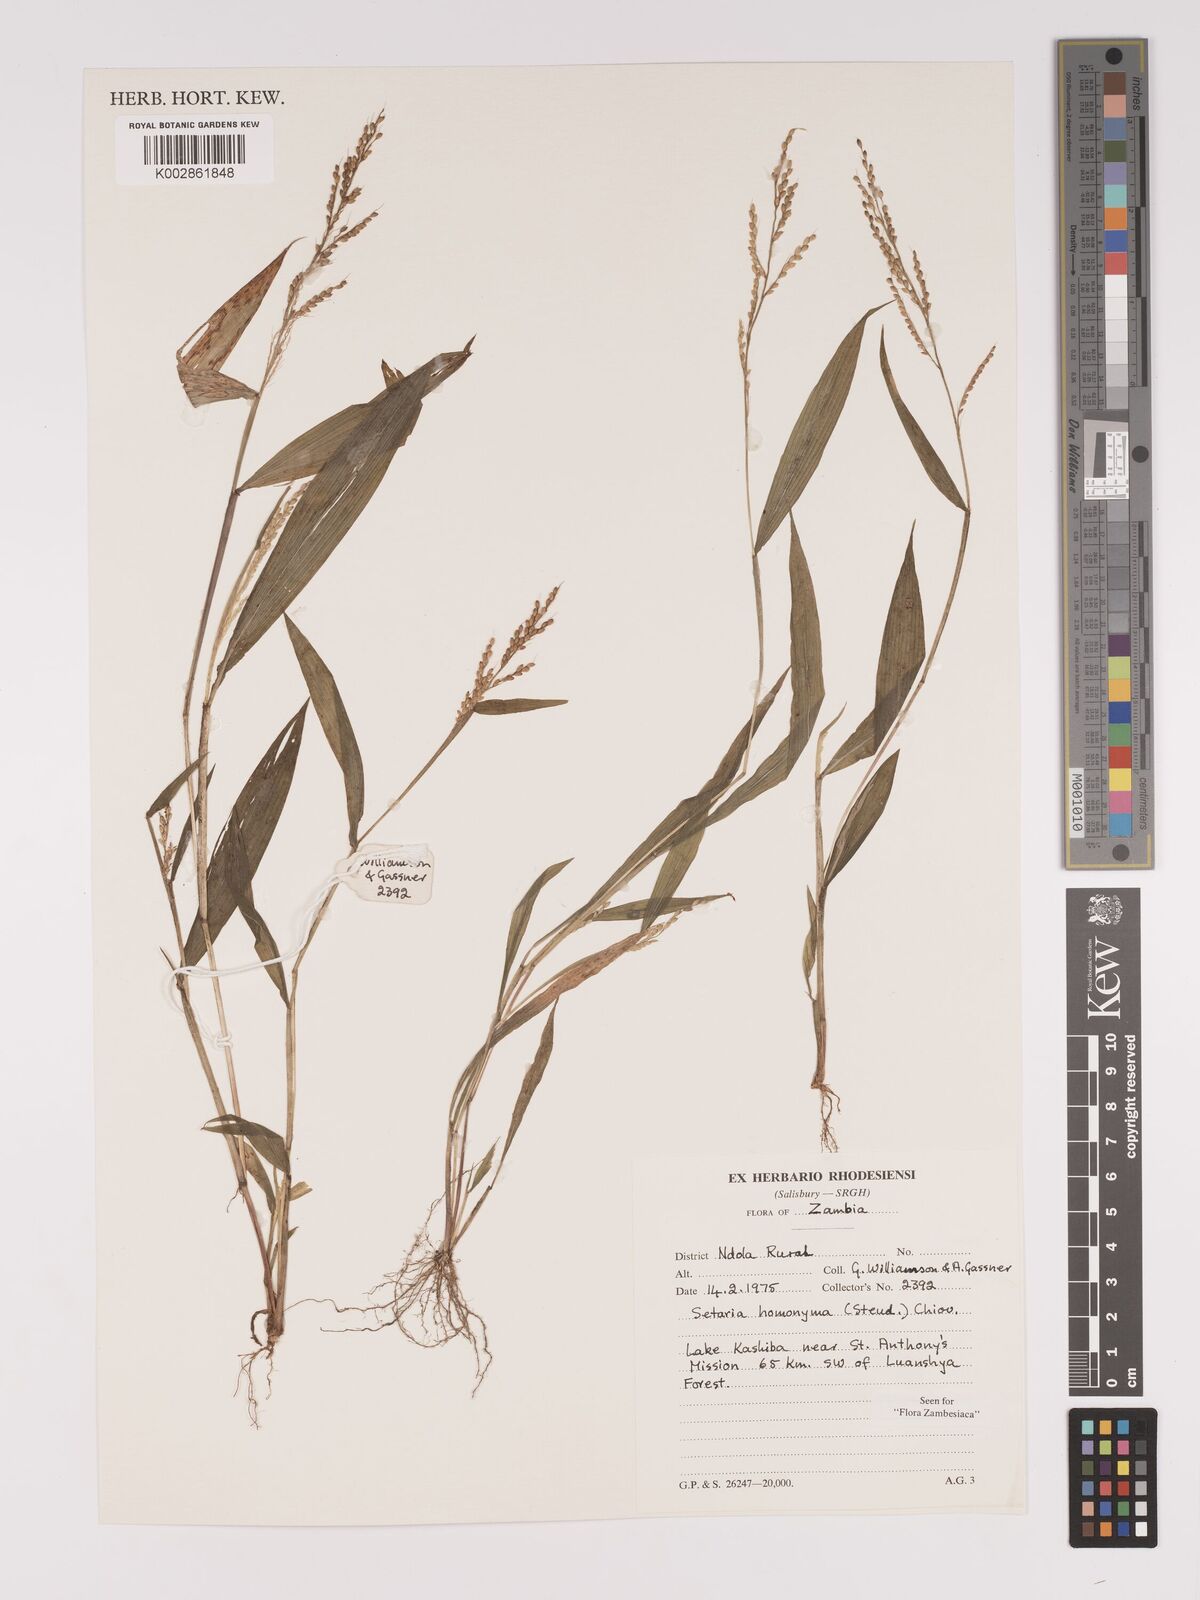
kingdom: Plantae
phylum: Tracheophyta
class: Liliopsida
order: Poales
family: Poaceae
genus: Setaria
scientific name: Setaria homonyma
